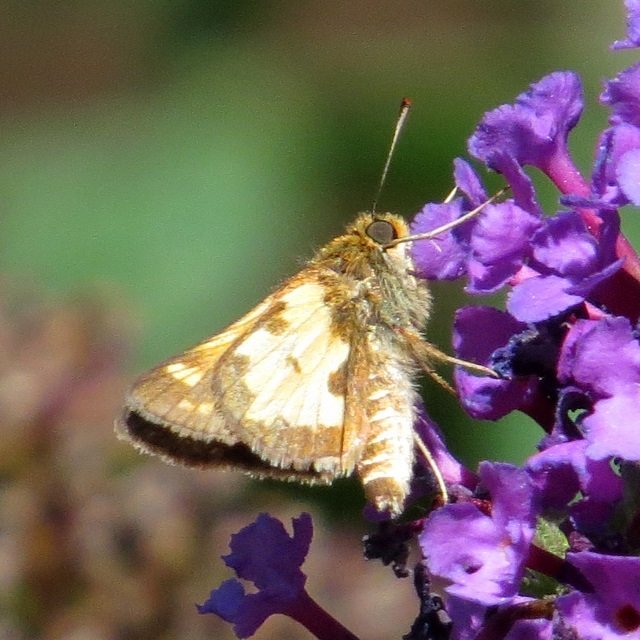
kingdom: Animalia
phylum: Arthropoda
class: Insecta
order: Lepidoptera
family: Hesperiidae
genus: Polites
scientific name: Polites coras
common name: Peck's Skipper
